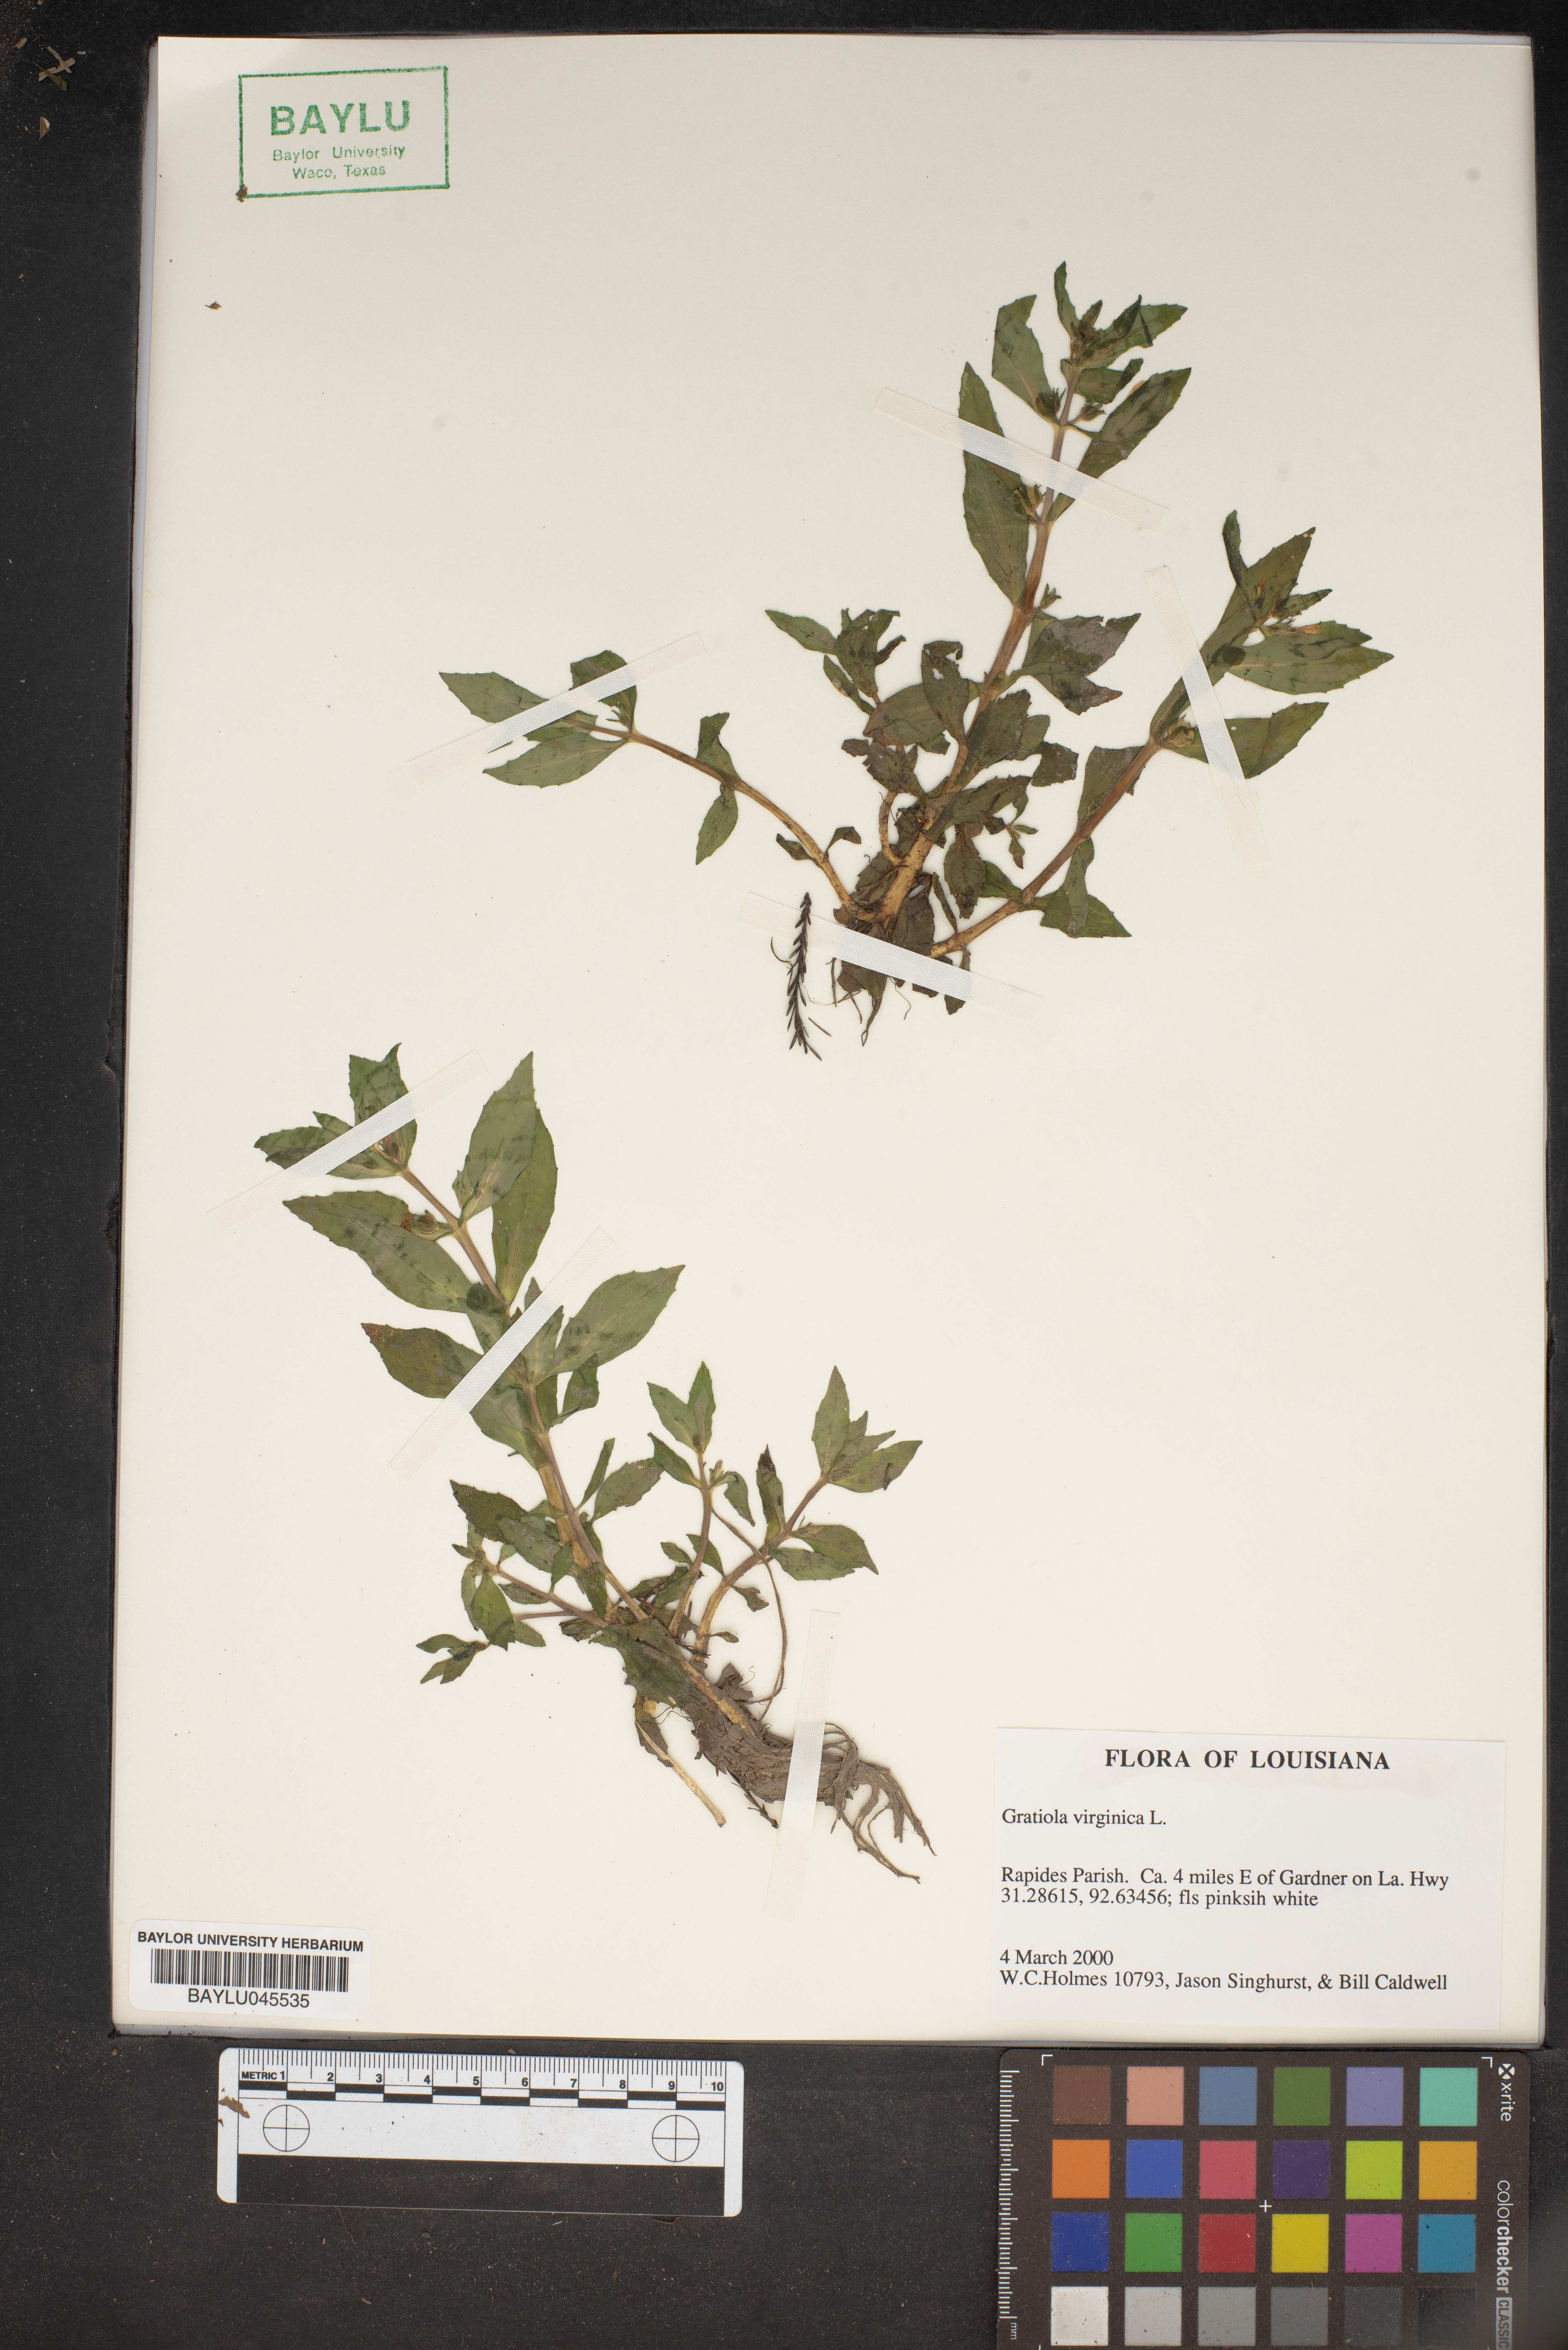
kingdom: Plantae
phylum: Tracheophyta
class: Magnoliopsida
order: Lamiales
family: Plantaginaceae
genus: Gratiola
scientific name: Gratiola virginica
